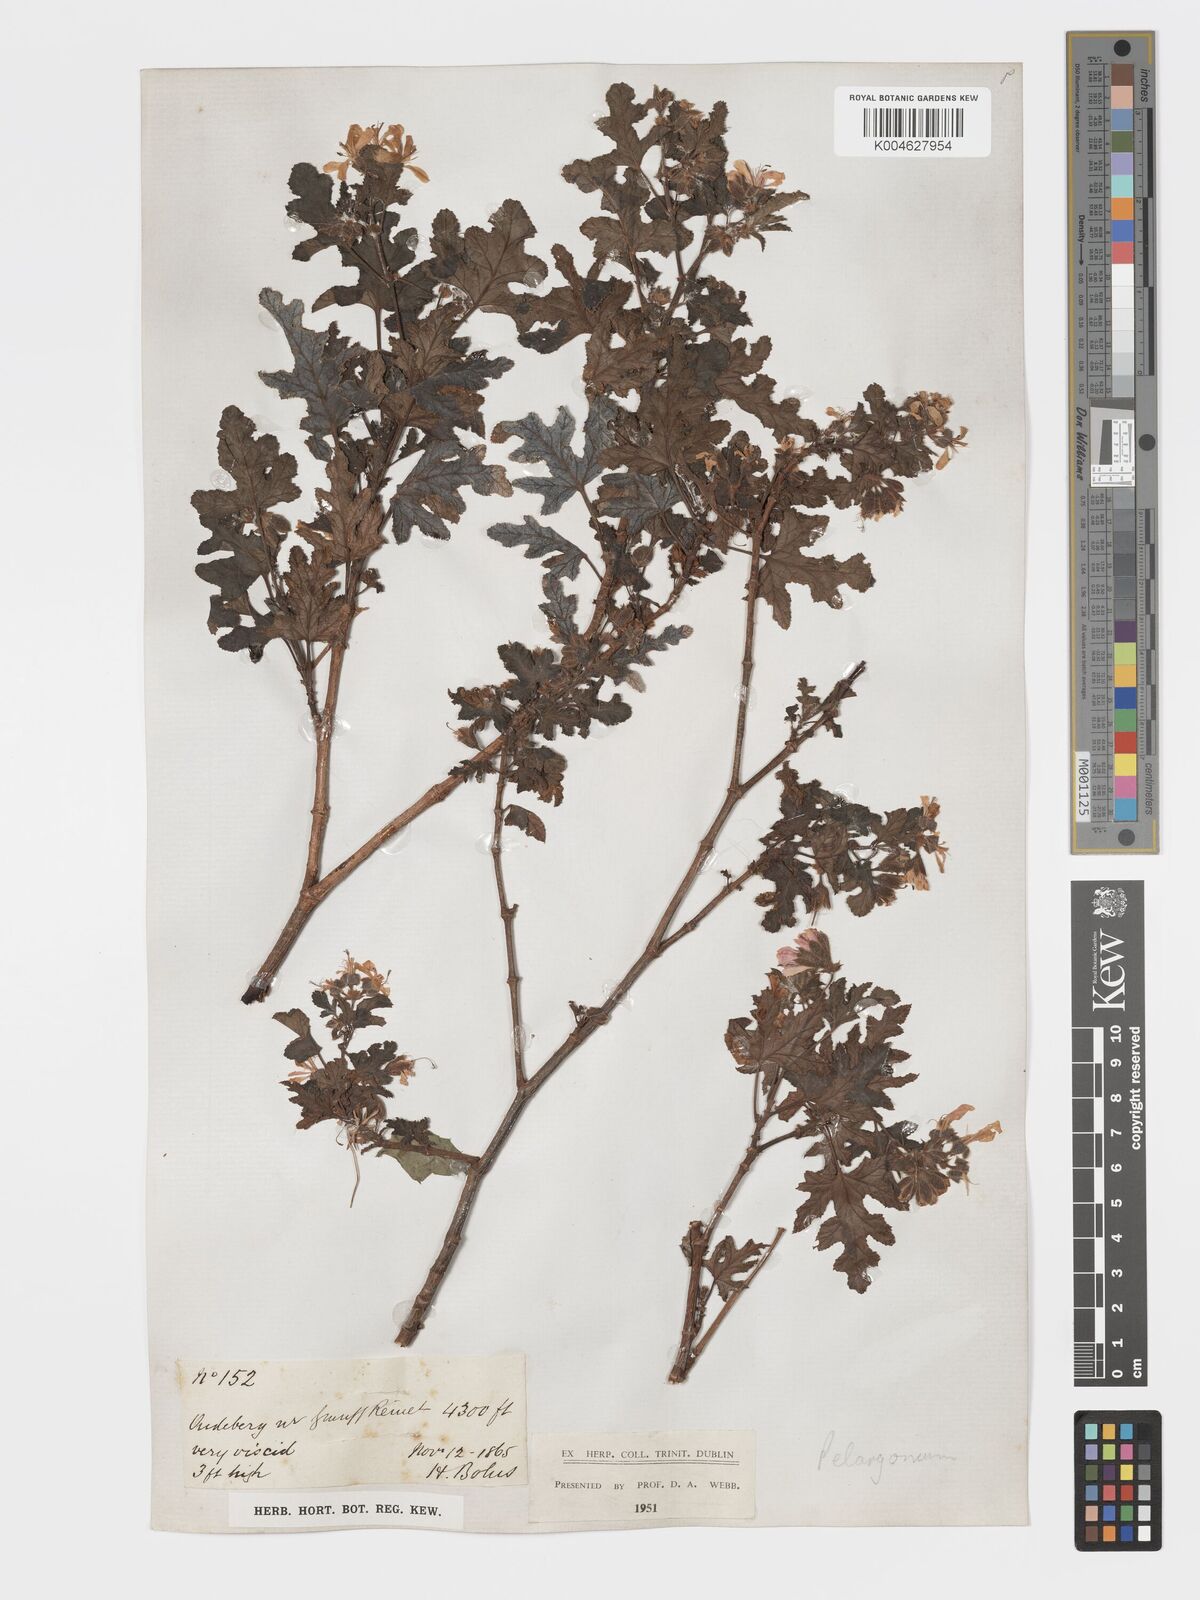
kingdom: Plantae
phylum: Tracheophyta
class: Magnoliopsida
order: Geraniales
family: Geraniaceae
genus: Pelargonium
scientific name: Pelargonium quercifolium
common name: Oakleaf geranium
